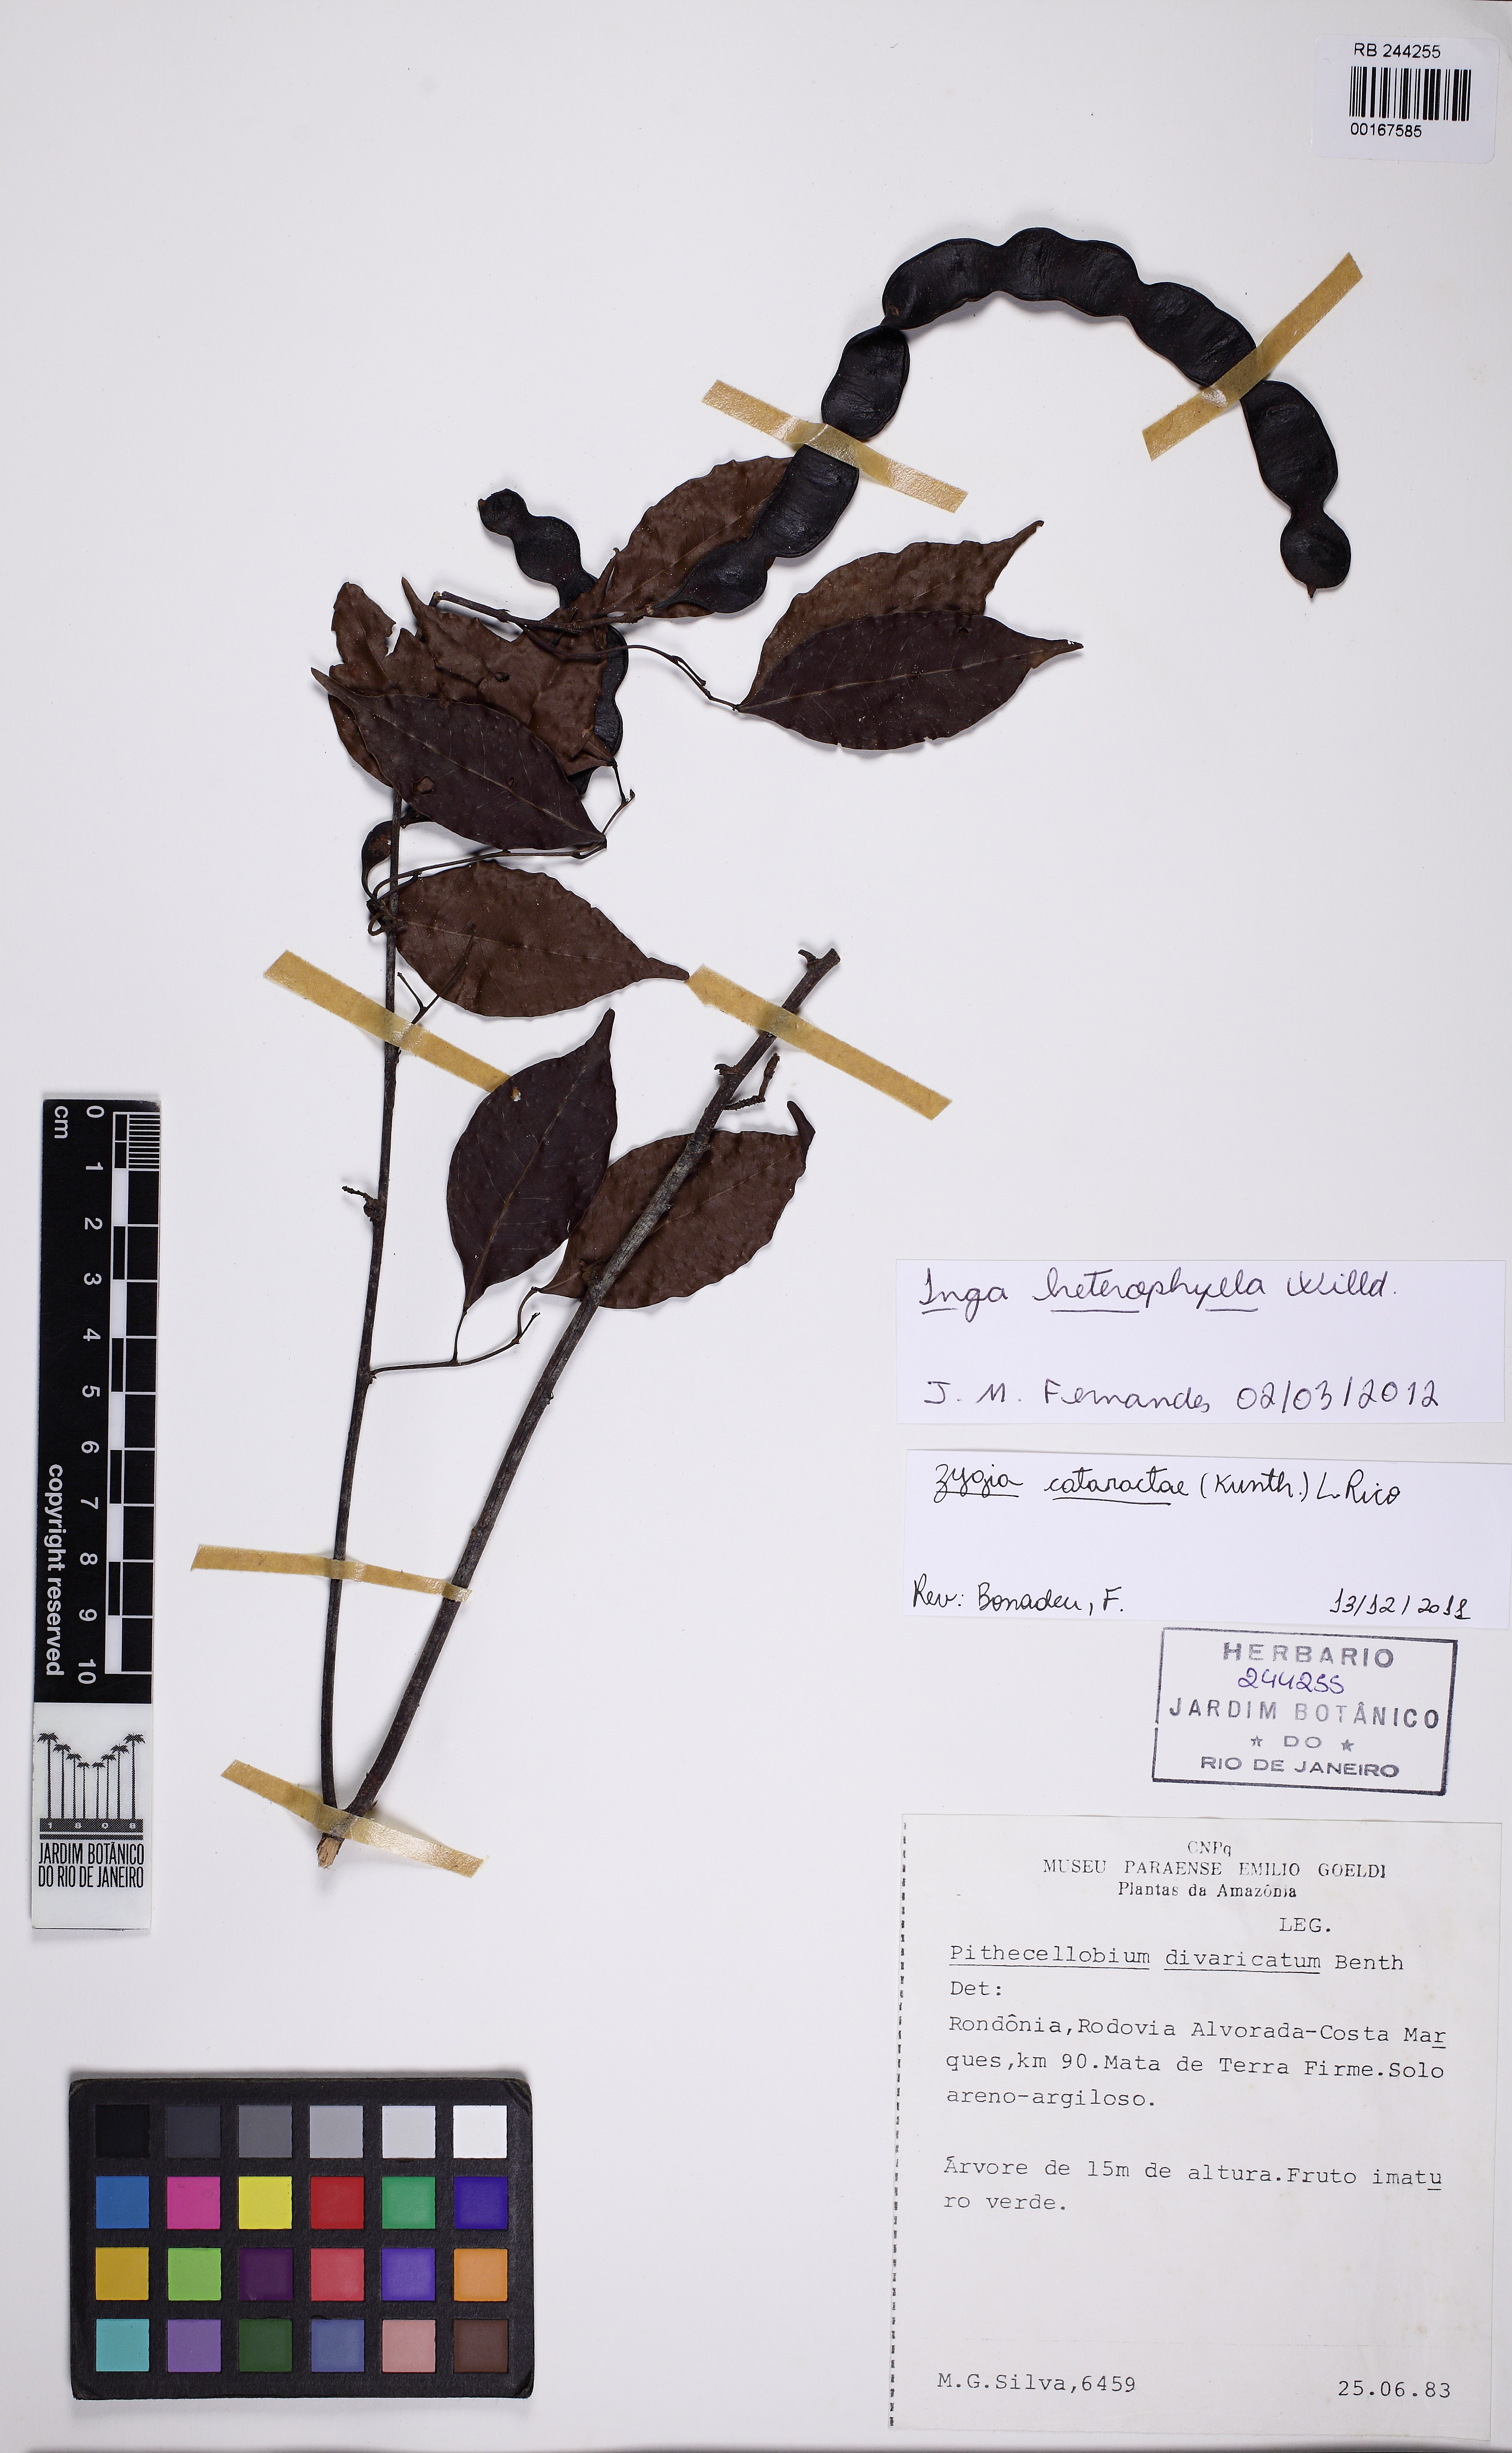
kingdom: Plantae
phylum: Tracheophyta
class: Magnoliopsida
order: Fabales
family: Fabaceae
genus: Inga
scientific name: Inga heterophylla
